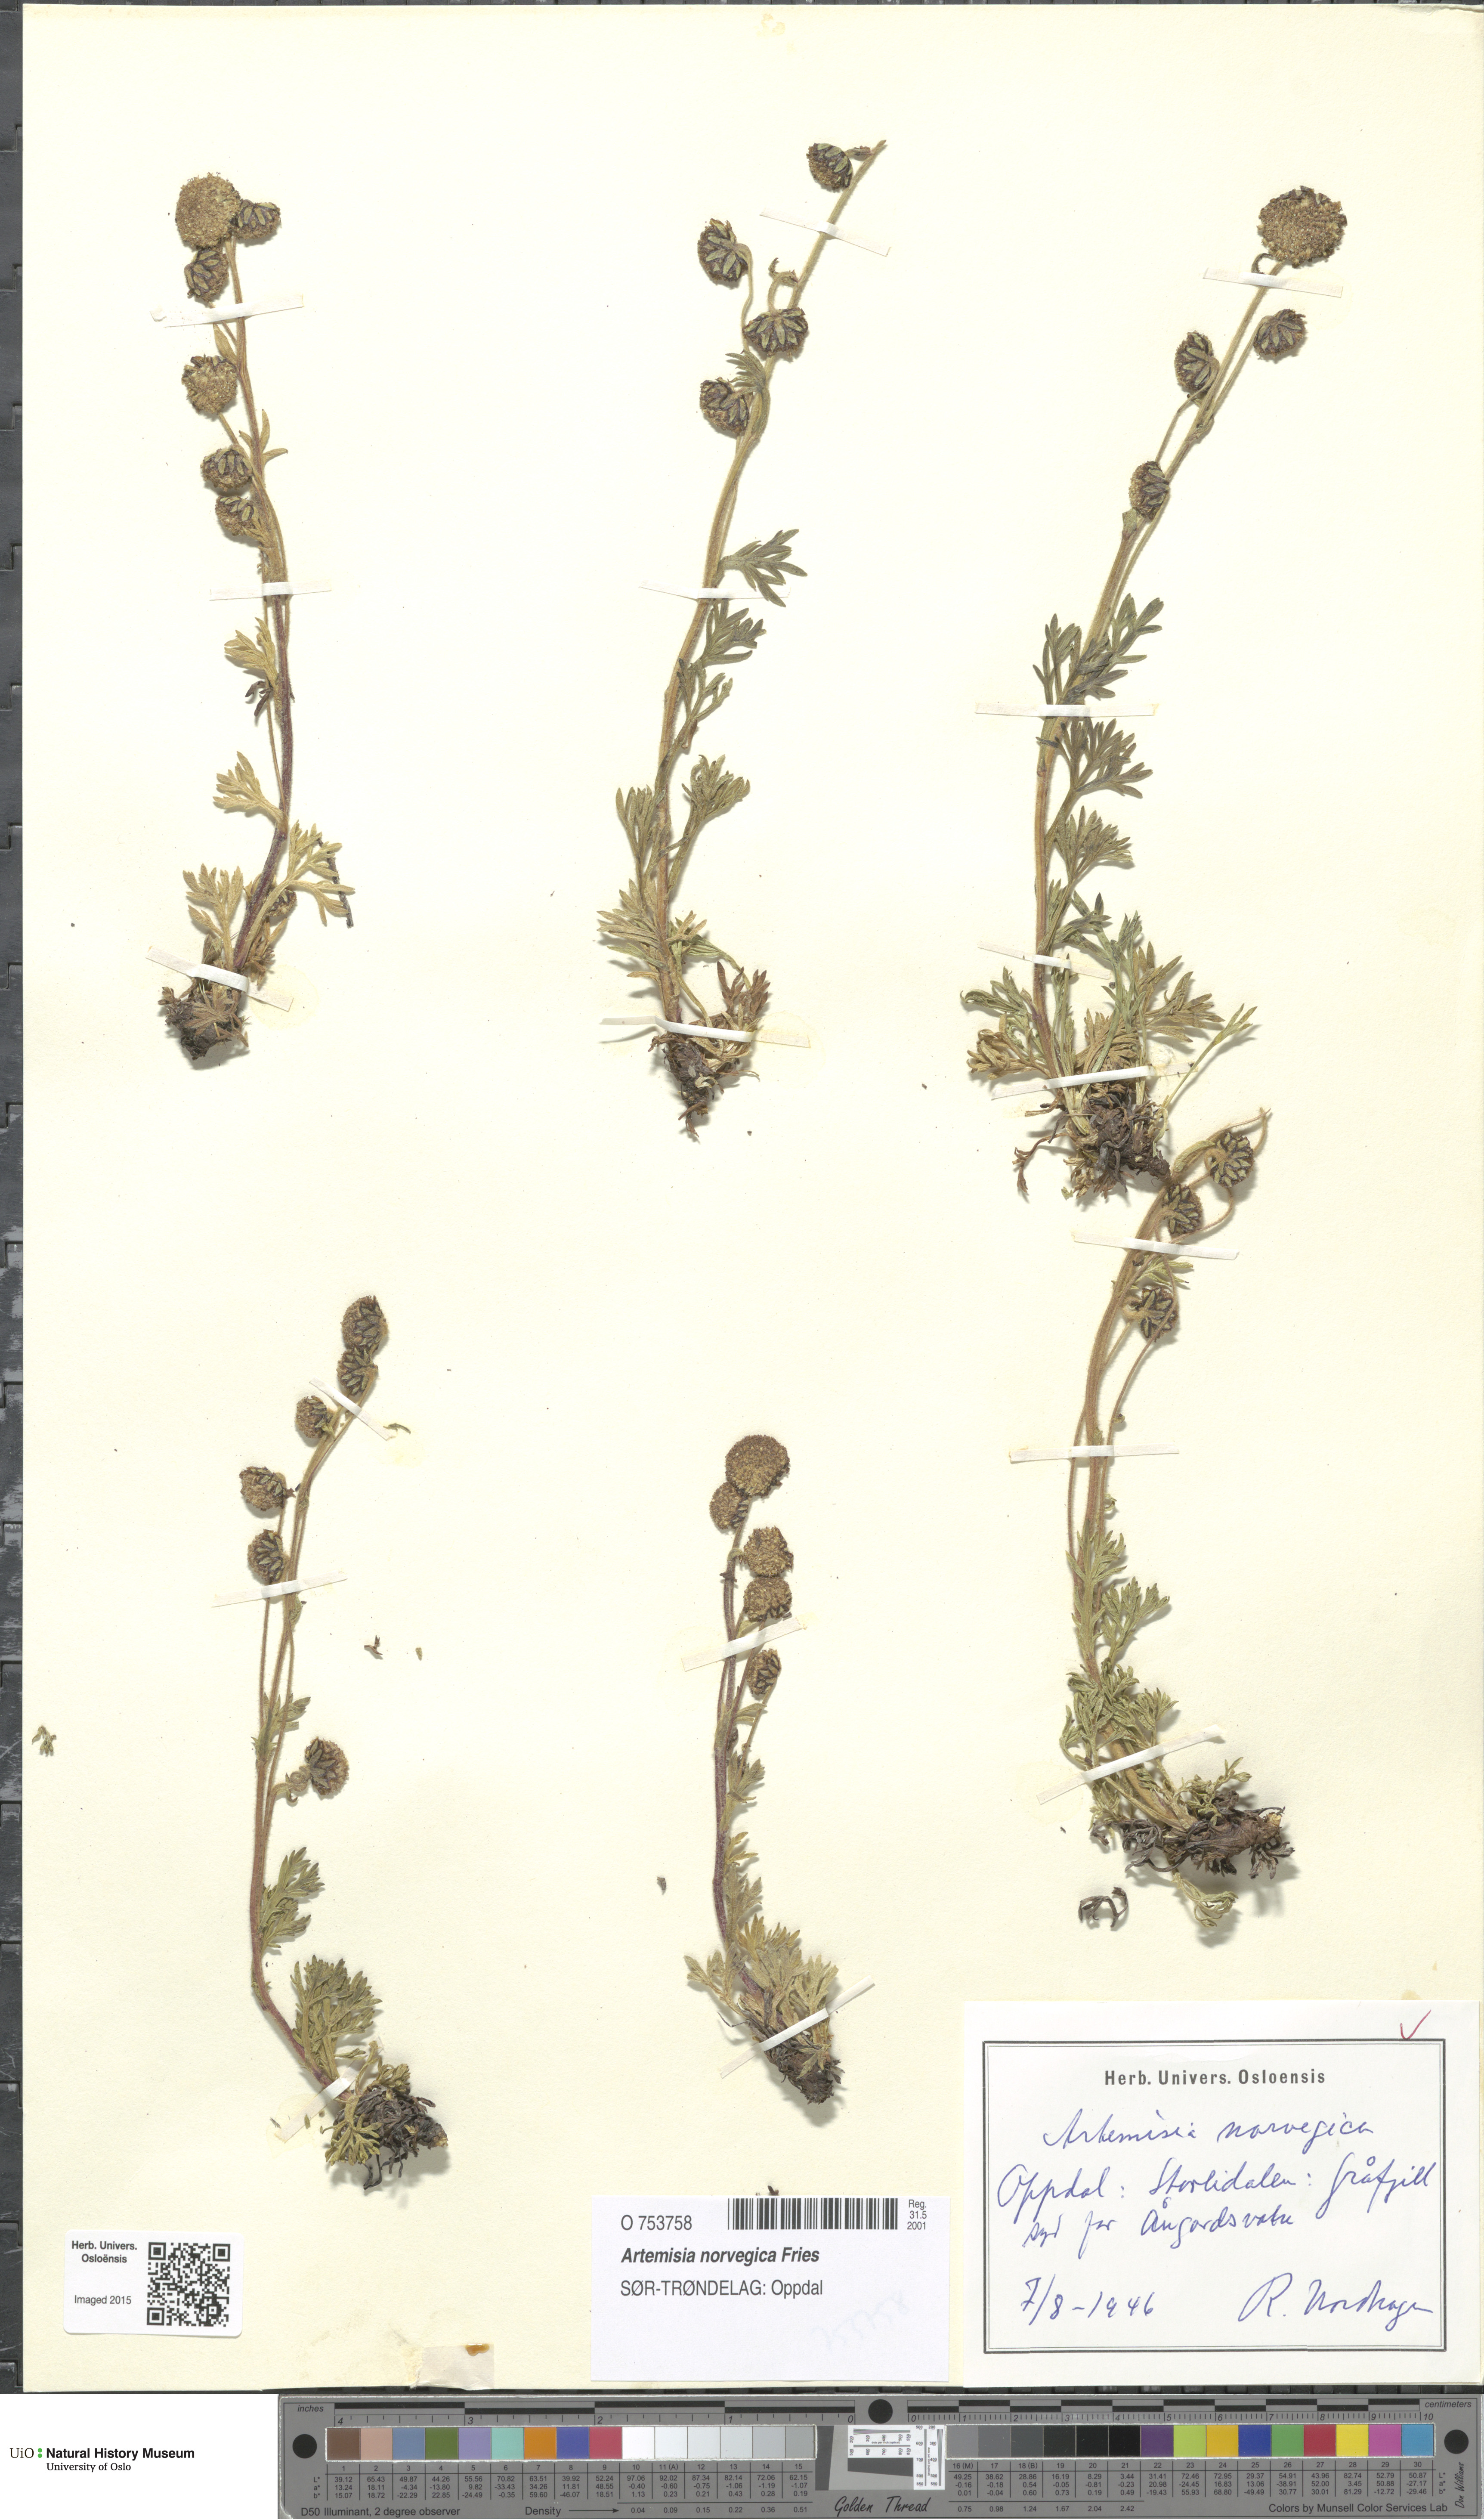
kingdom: Plantae
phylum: Tracheophyta
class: Magnoliopsida
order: Asterales
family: Asteraceae
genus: Artemisia
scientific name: Artemisia norvegica
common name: Norwegian mugwort
